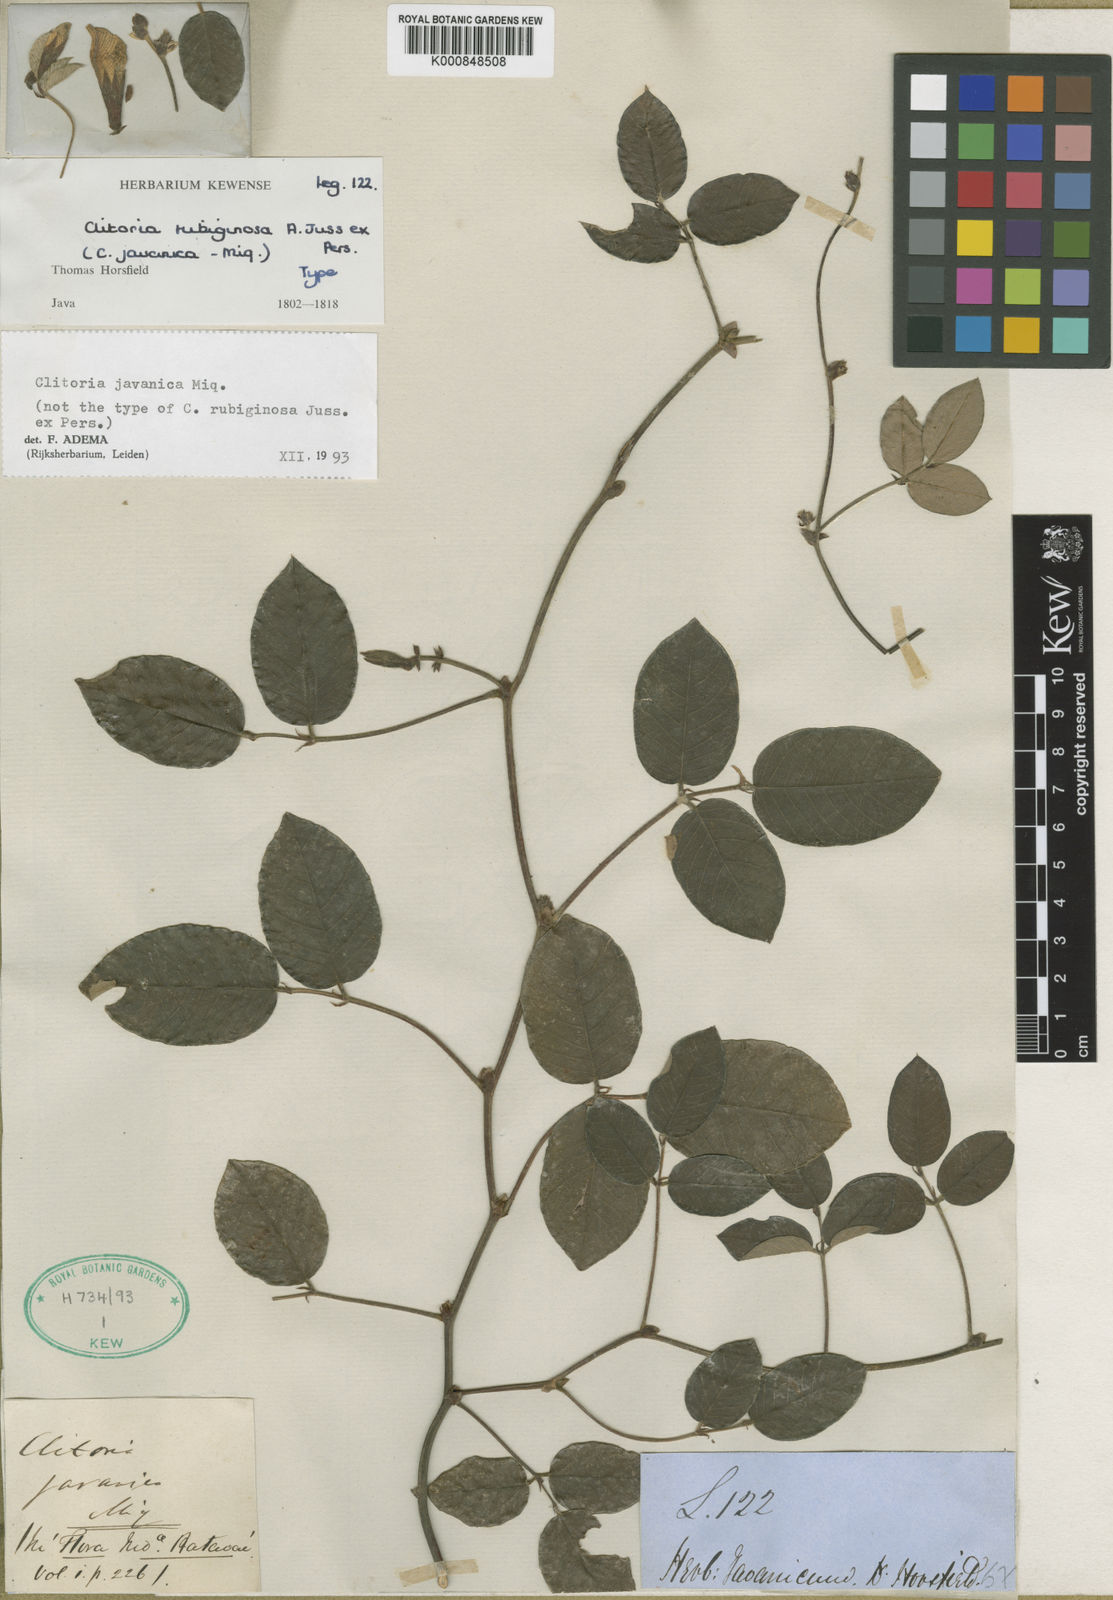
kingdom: Plantae
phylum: Tracheophyta
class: Magnoliopsida
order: Fabales
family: Fabaceae
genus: Clitoria
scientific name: Clitoria javanica
